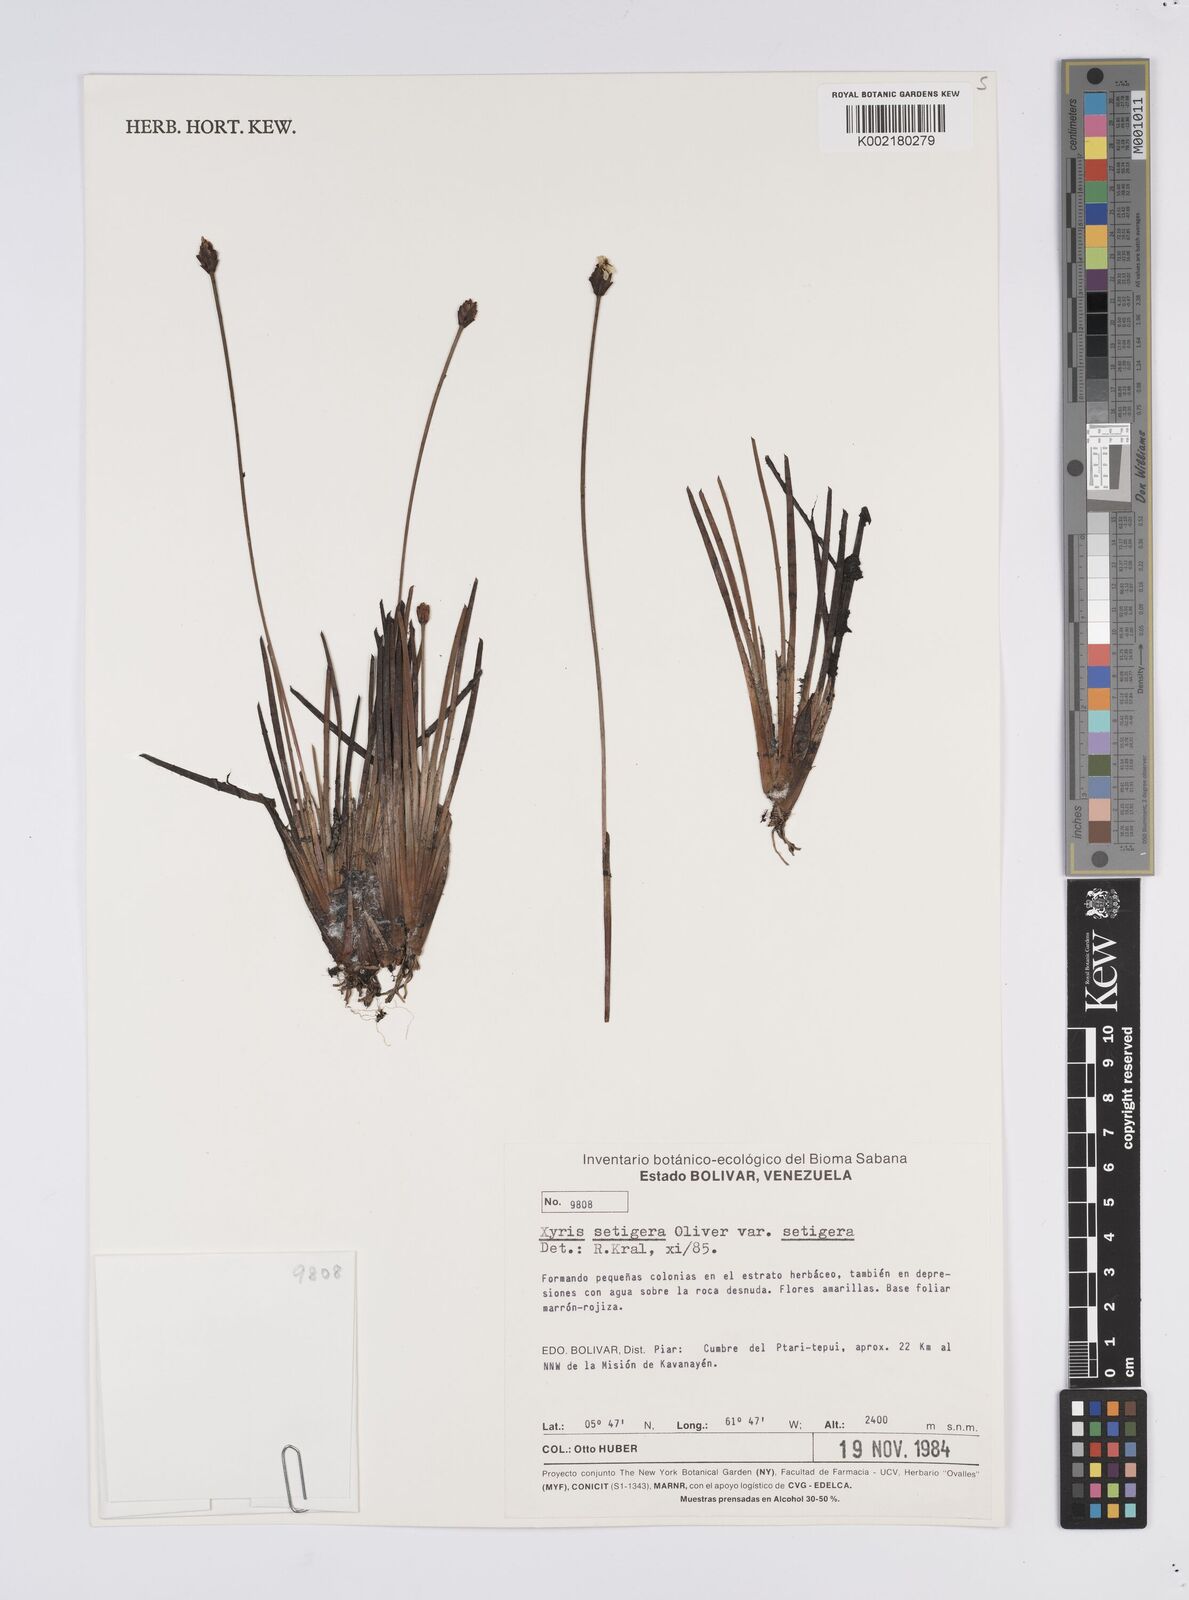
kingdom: Plantae
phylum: Tracheophyta
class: Liliopsida
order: Poales
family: Xyridaceae
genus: Xyris
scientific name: Xyris setigera
